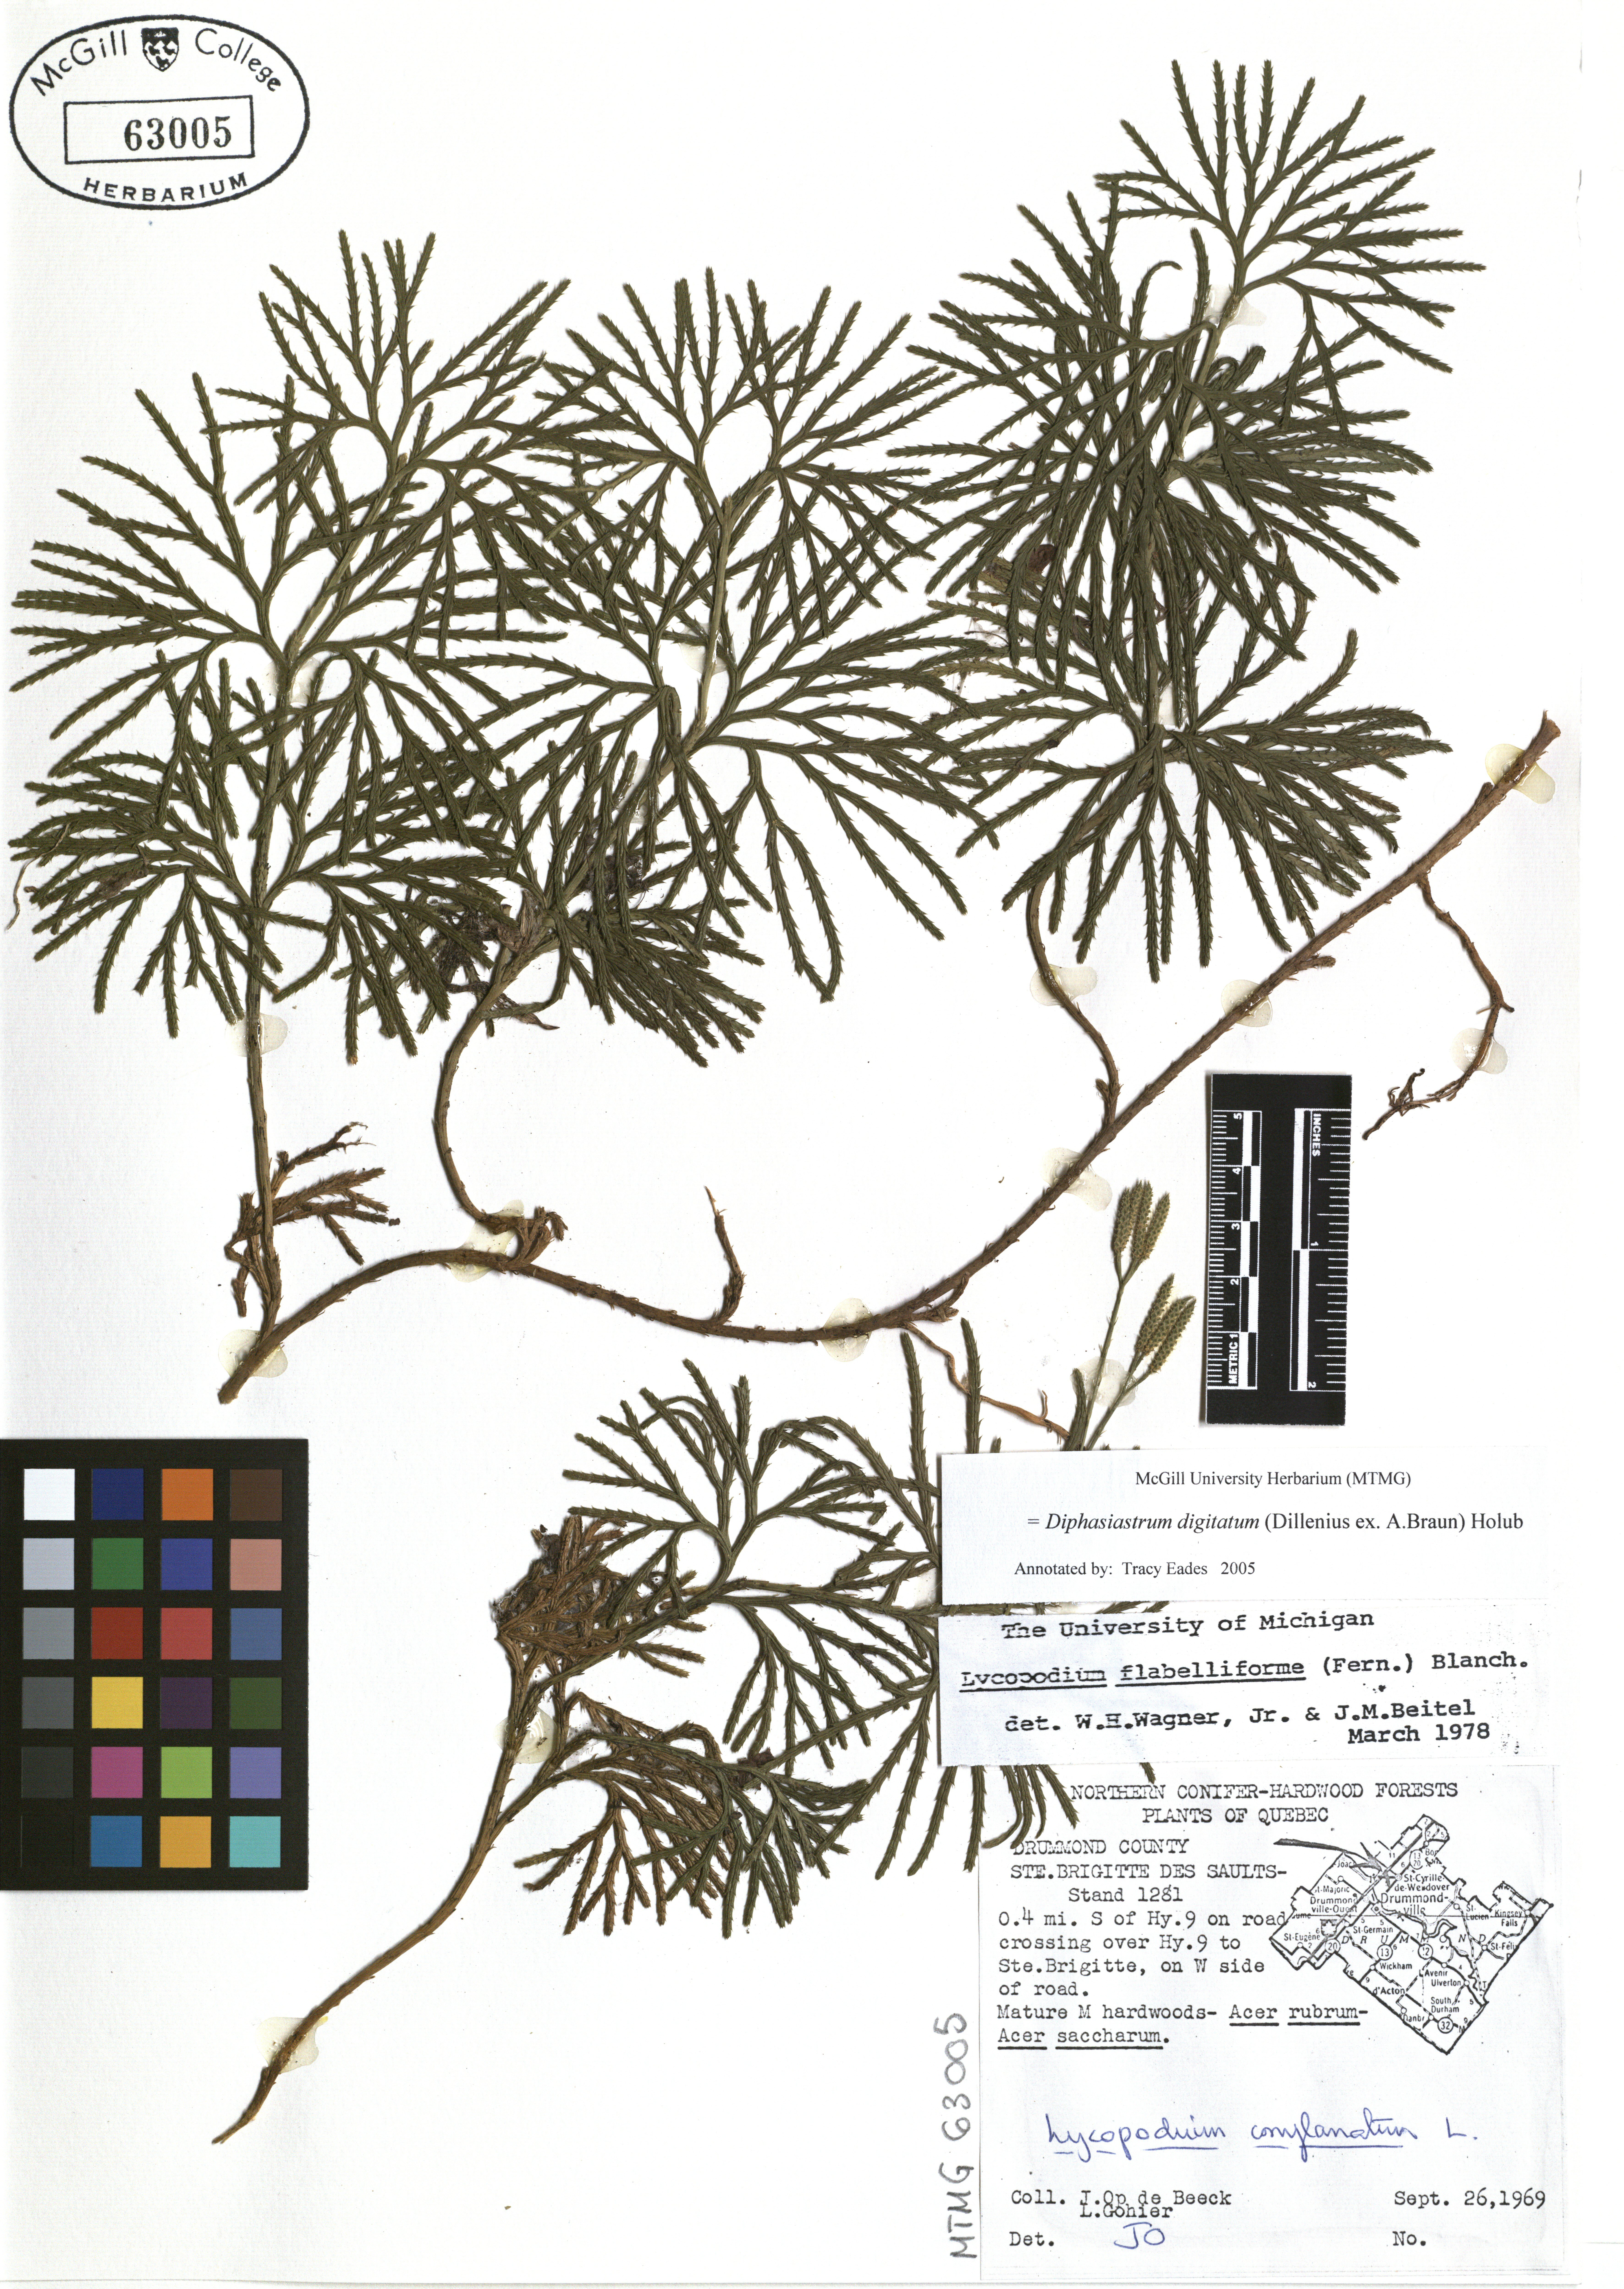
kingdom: Plantae
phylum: Tracheophyta
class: Lycopodiopsida
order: Lycopodiales
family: Lycopodiaceae
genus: Diphasiastrum
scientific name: Diphasiastrum digitatum
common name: Southern running-pine
